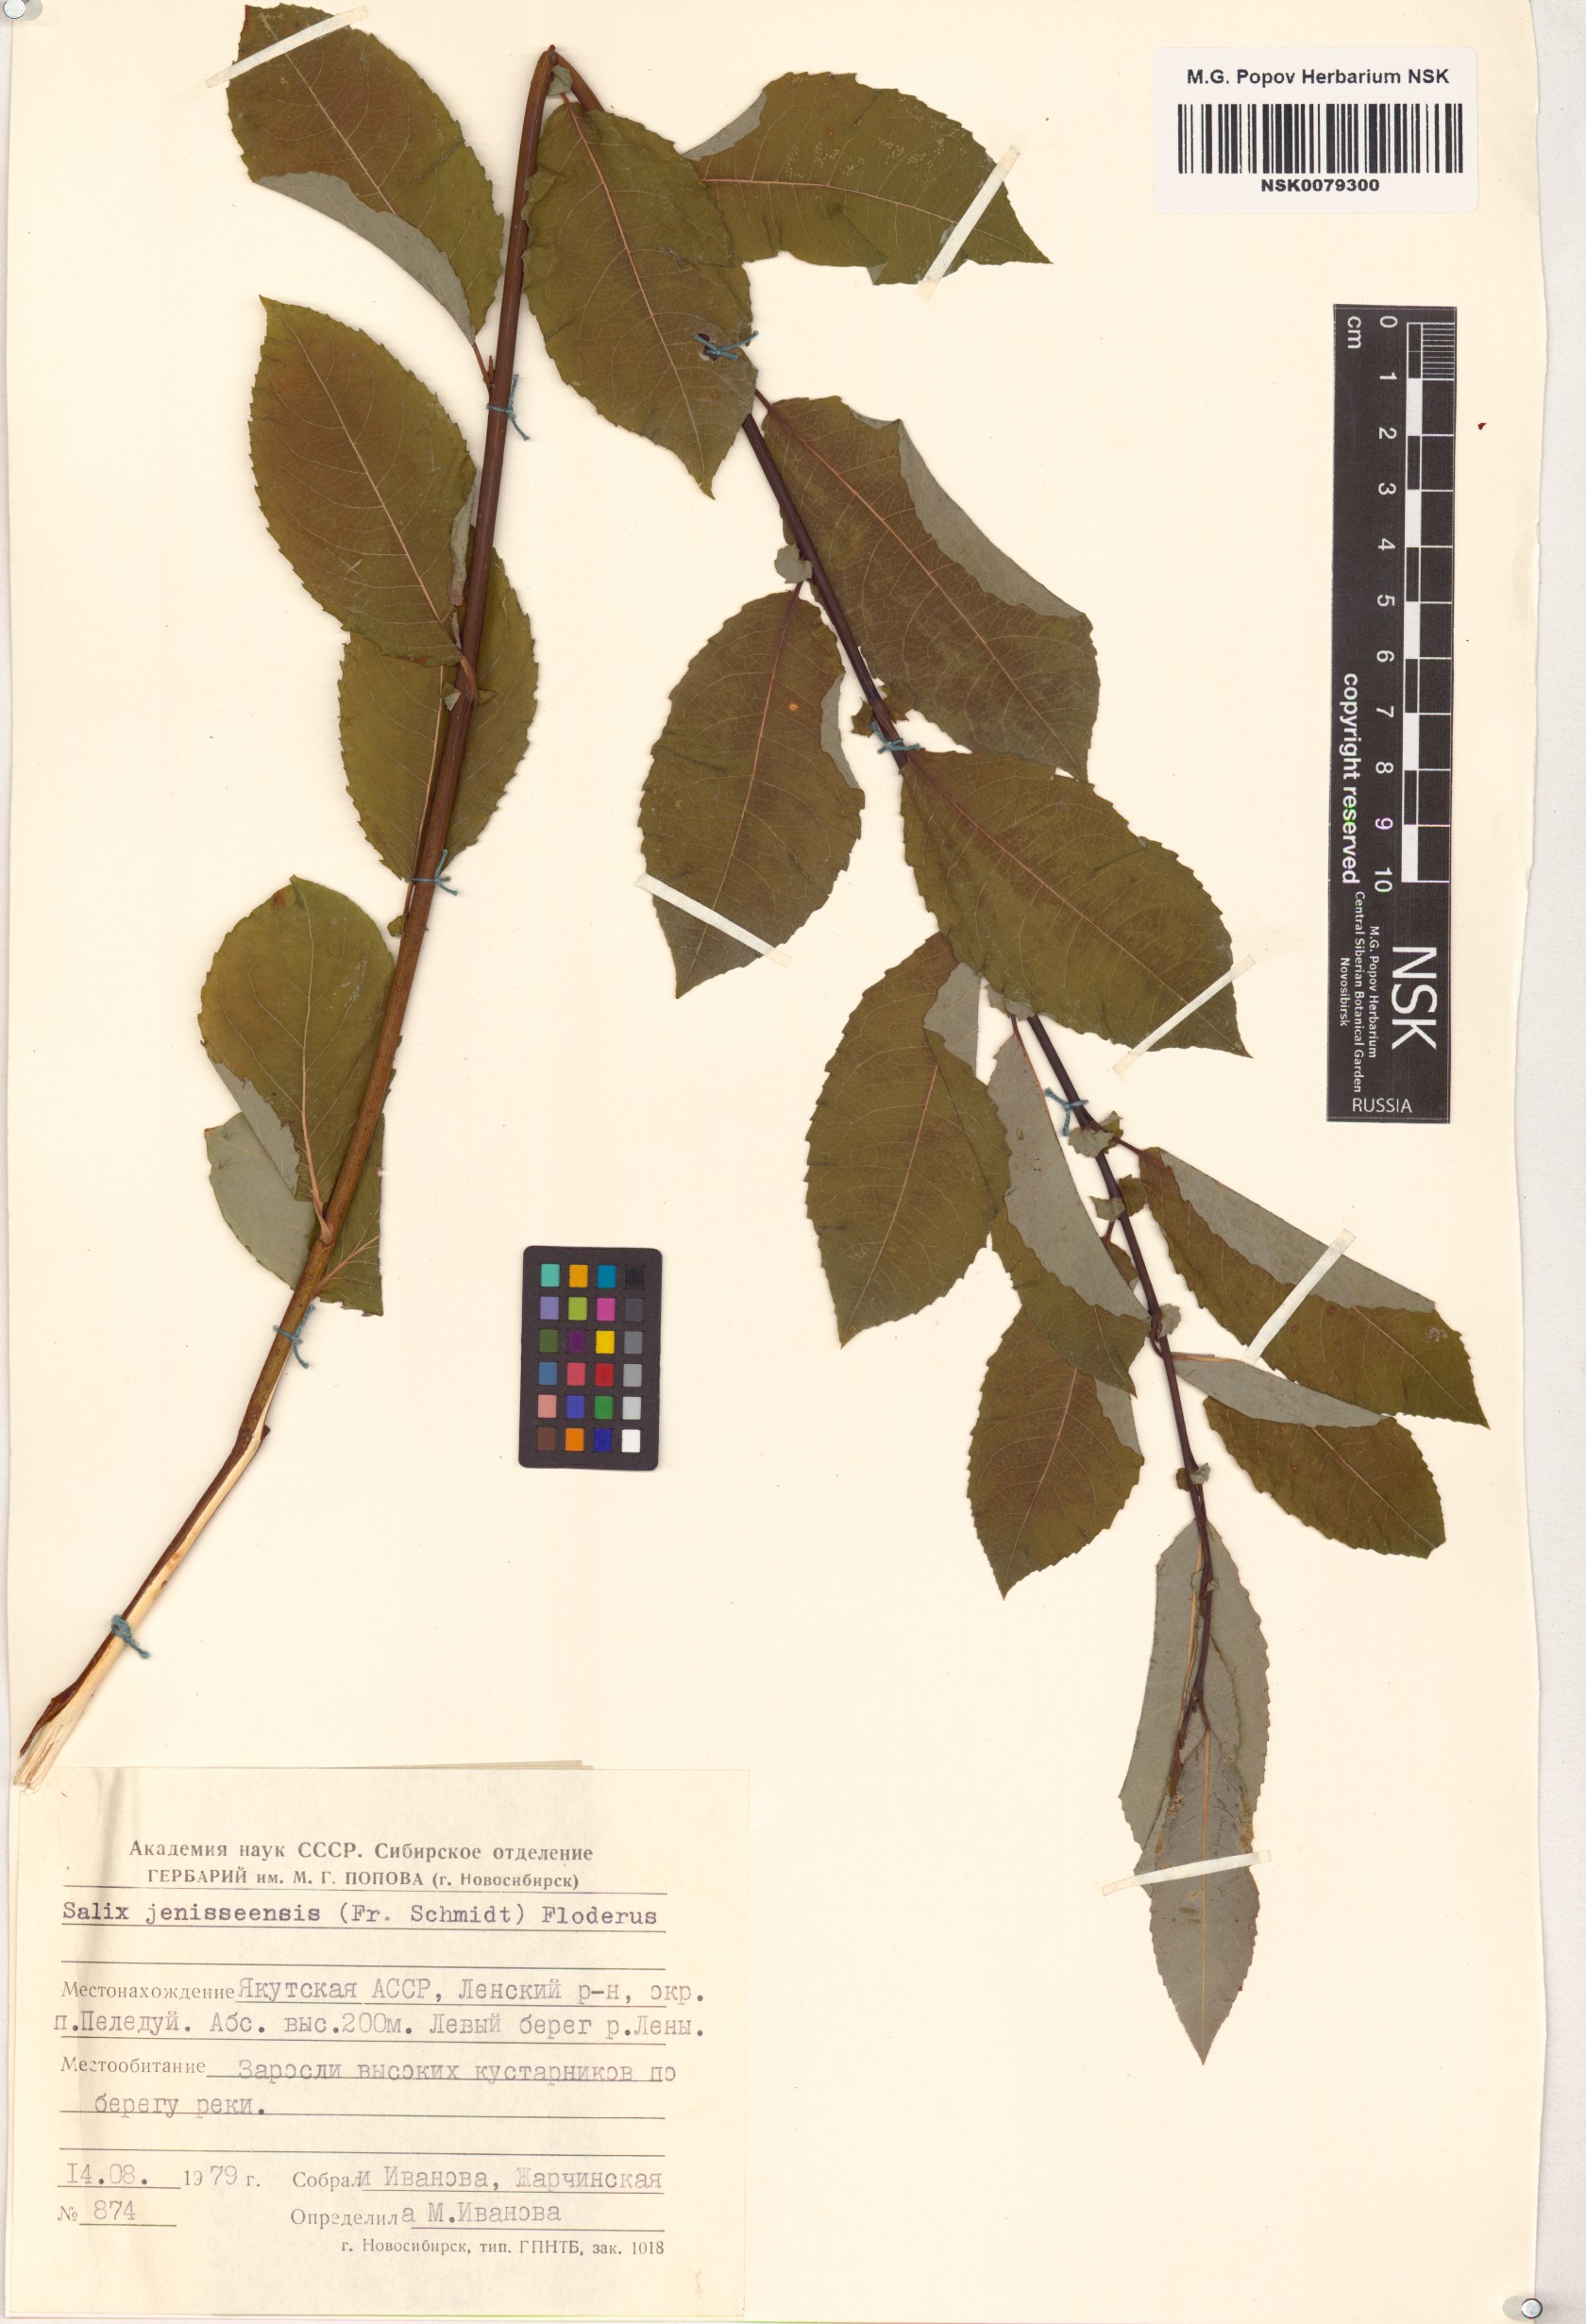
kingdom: Plantae
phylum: Tracheophyta
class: Magnoliopsida
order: Malpighiales
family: Salicaceae
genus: Salix
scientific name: Salix jenisseensis
